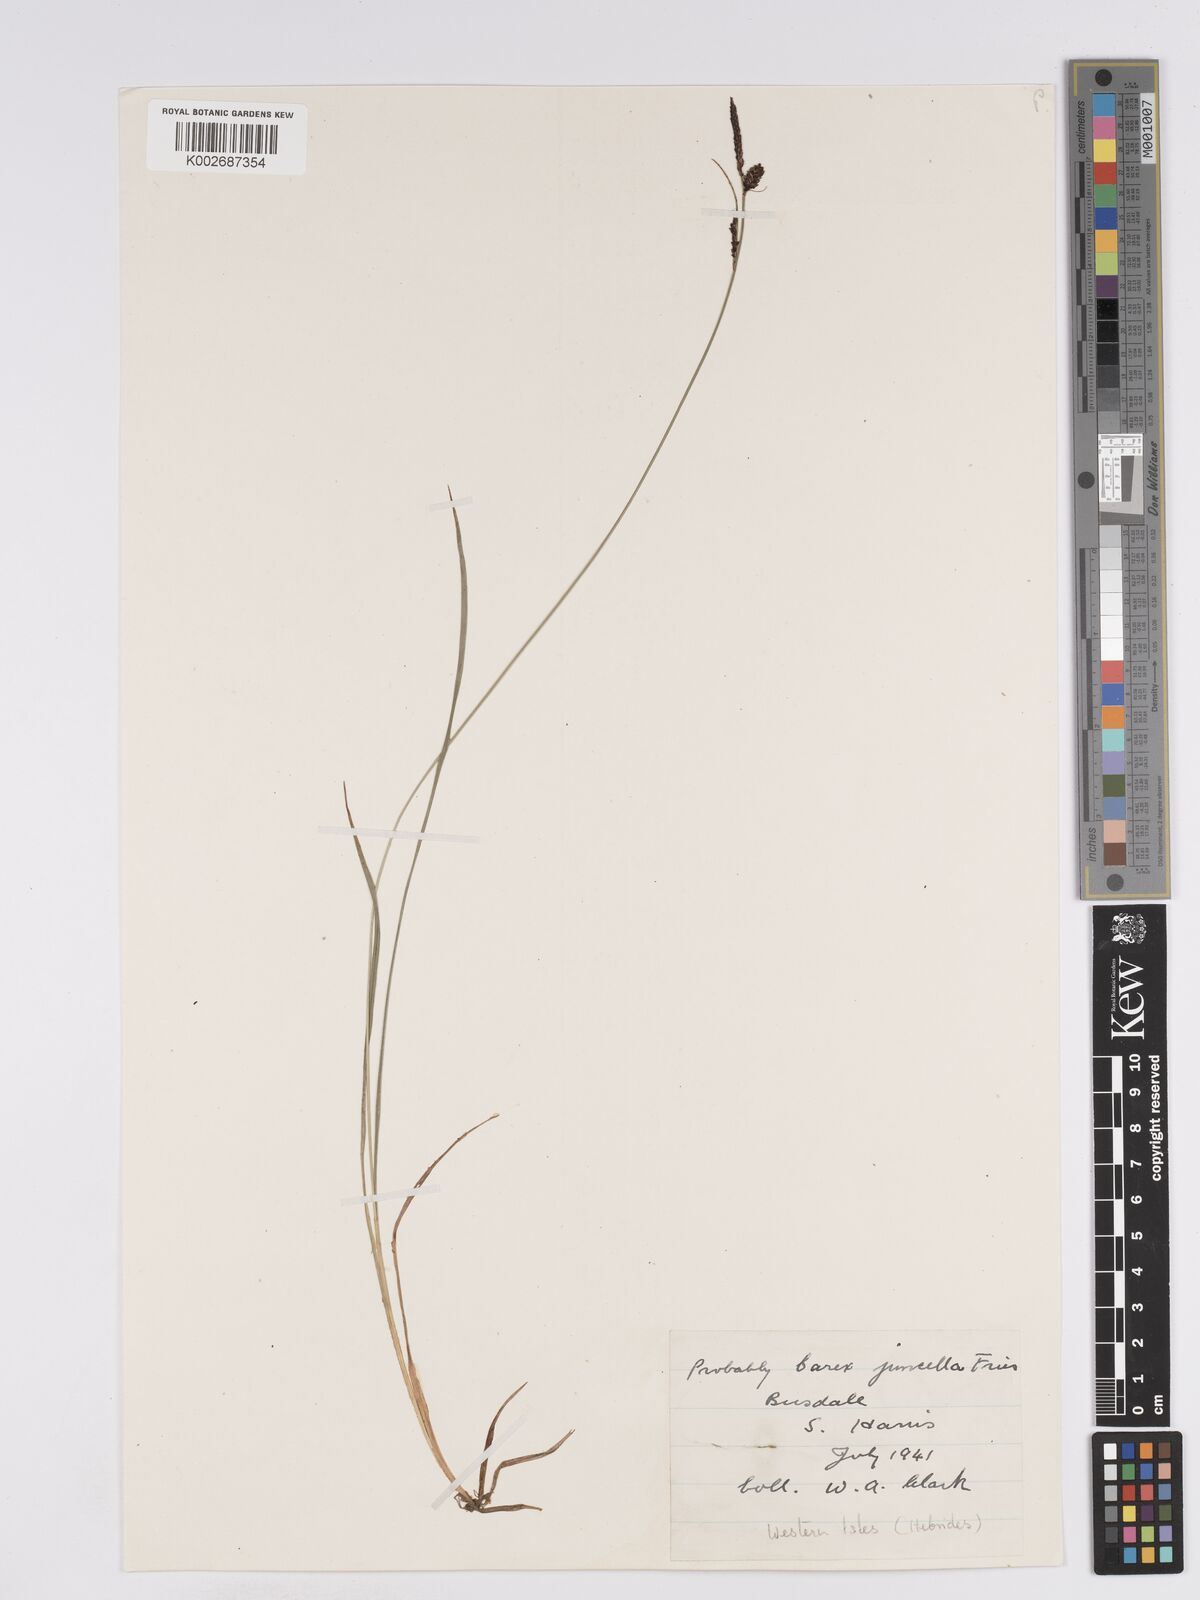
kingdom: Plantae
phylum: Tracheophyta
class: Liliopsida
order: Poales
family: Cyperaceae
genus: Carex
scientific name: Carex nigra
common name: Common sedge
